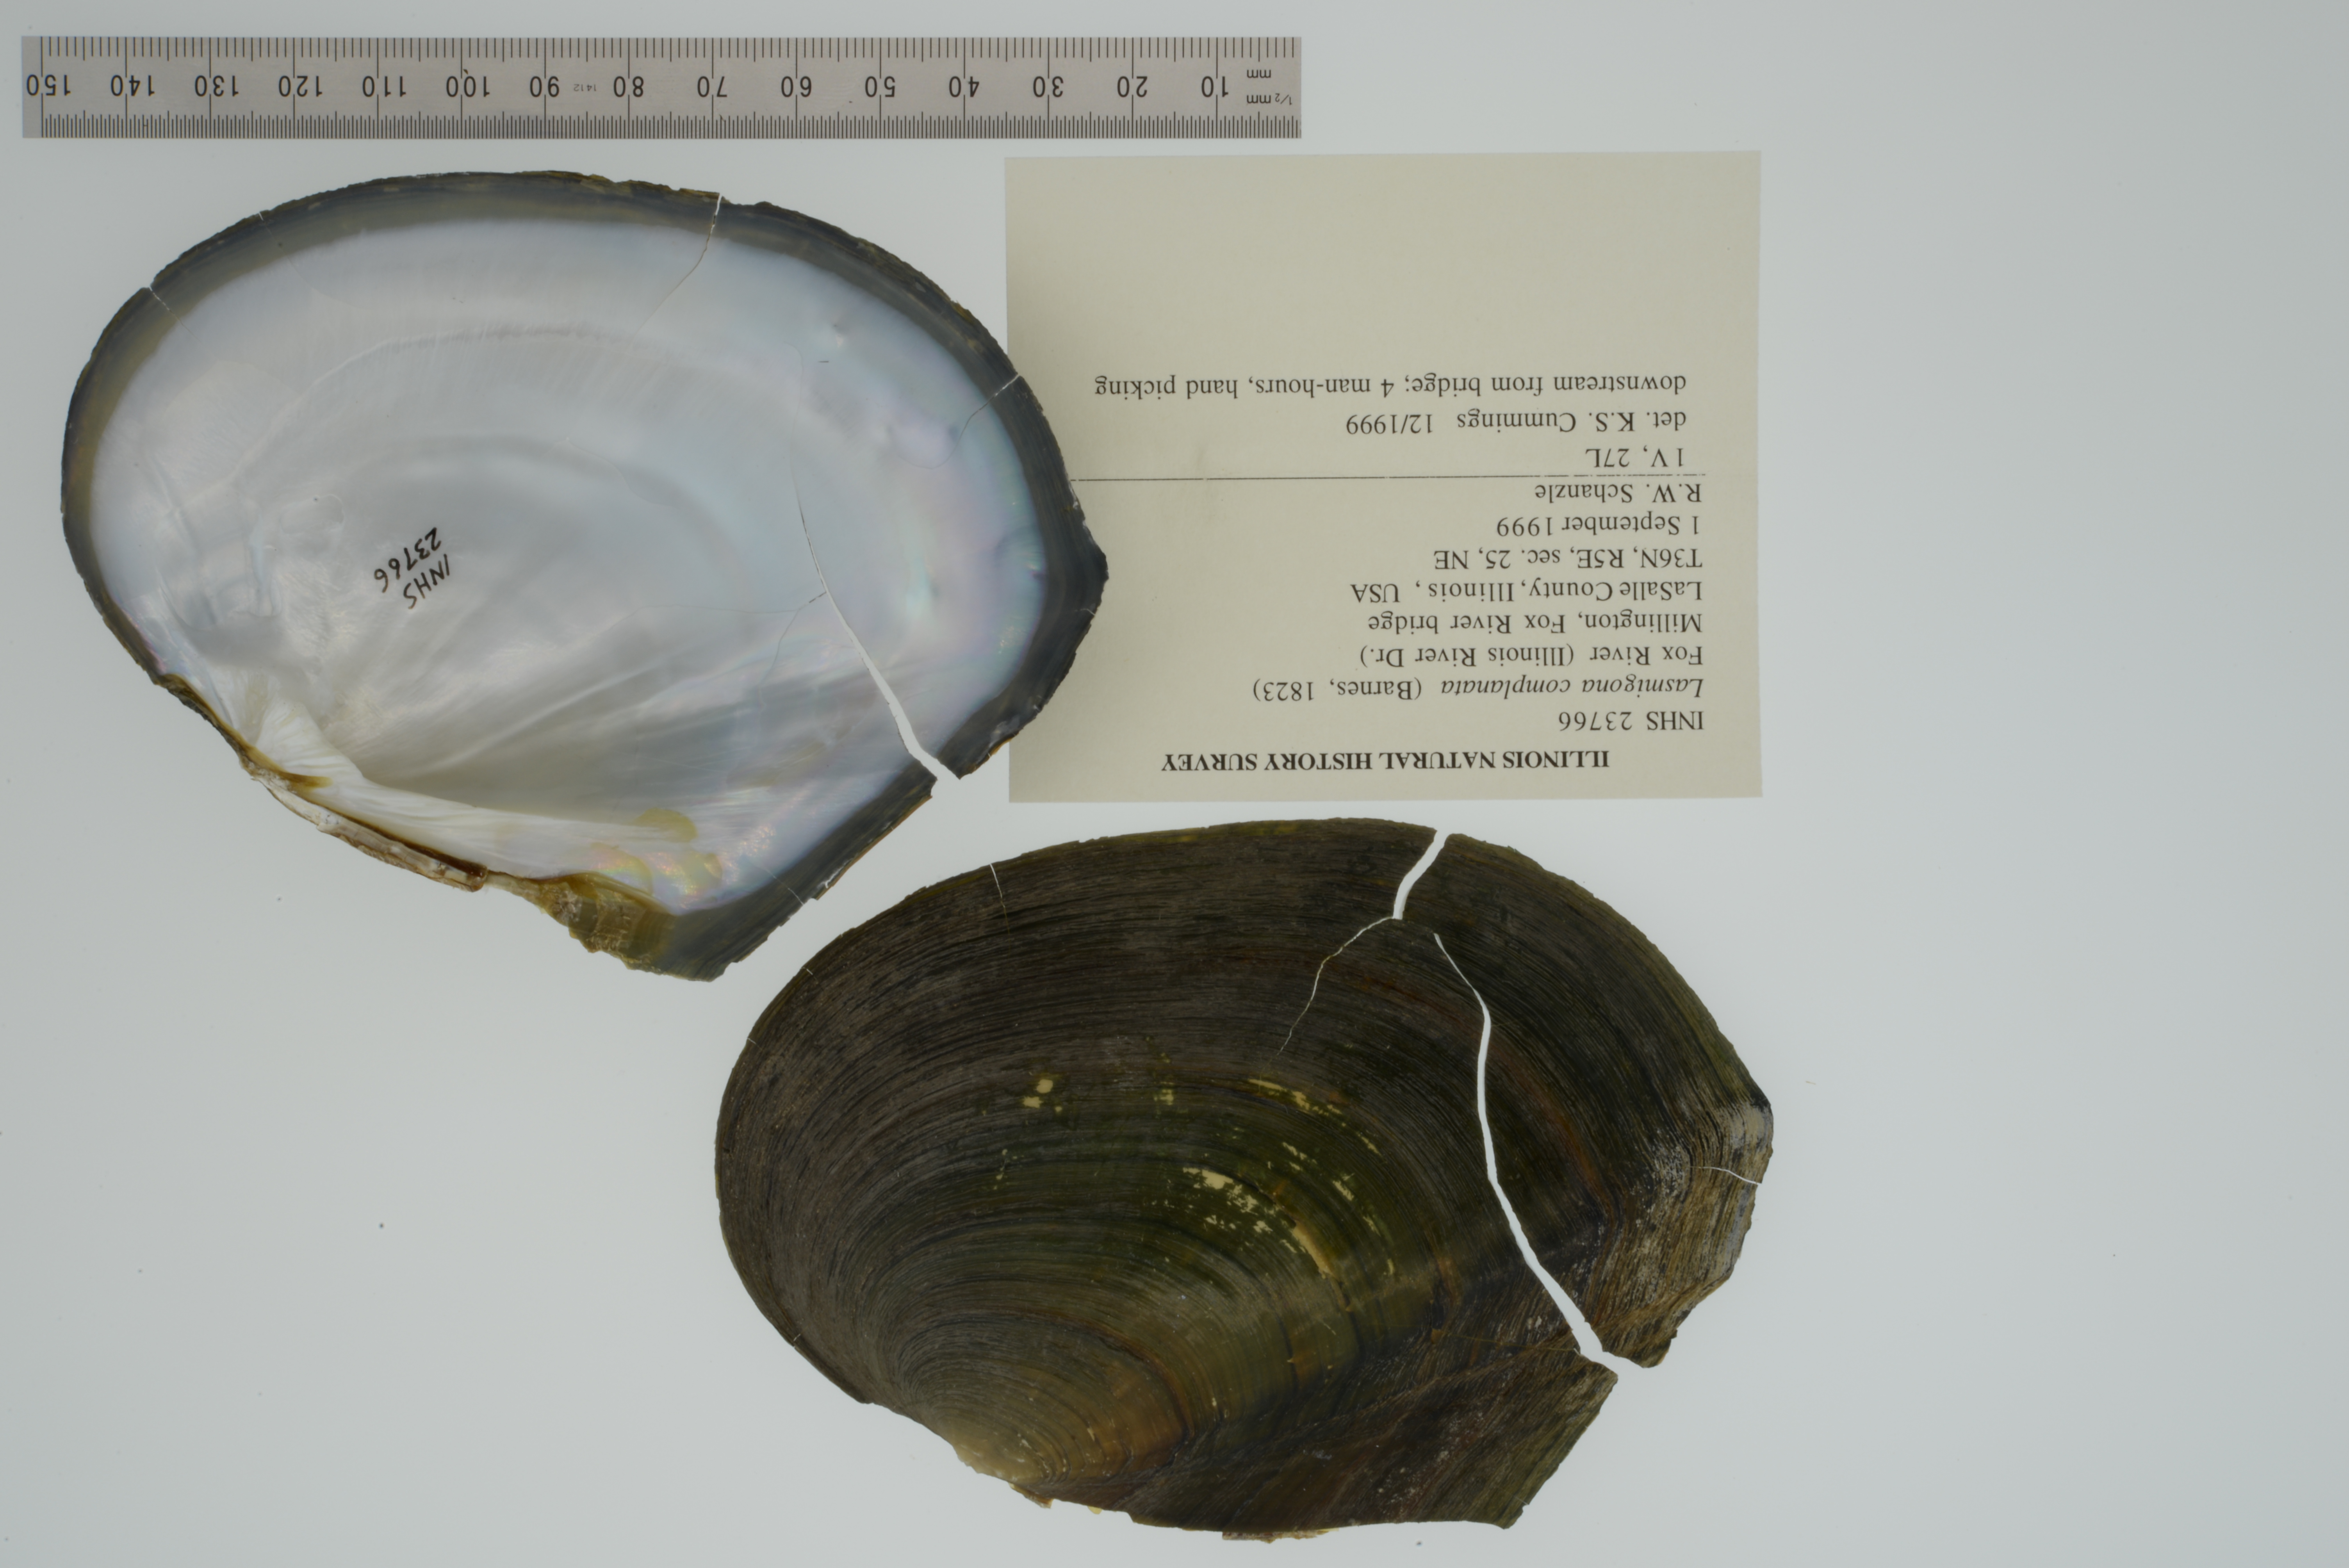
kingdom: Animalia
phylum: Mollusca
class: Bivalvia
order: Unionida
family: Unionidae
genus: Lasmigona
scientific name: Lasmigona complanata
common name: White heelsplitter
